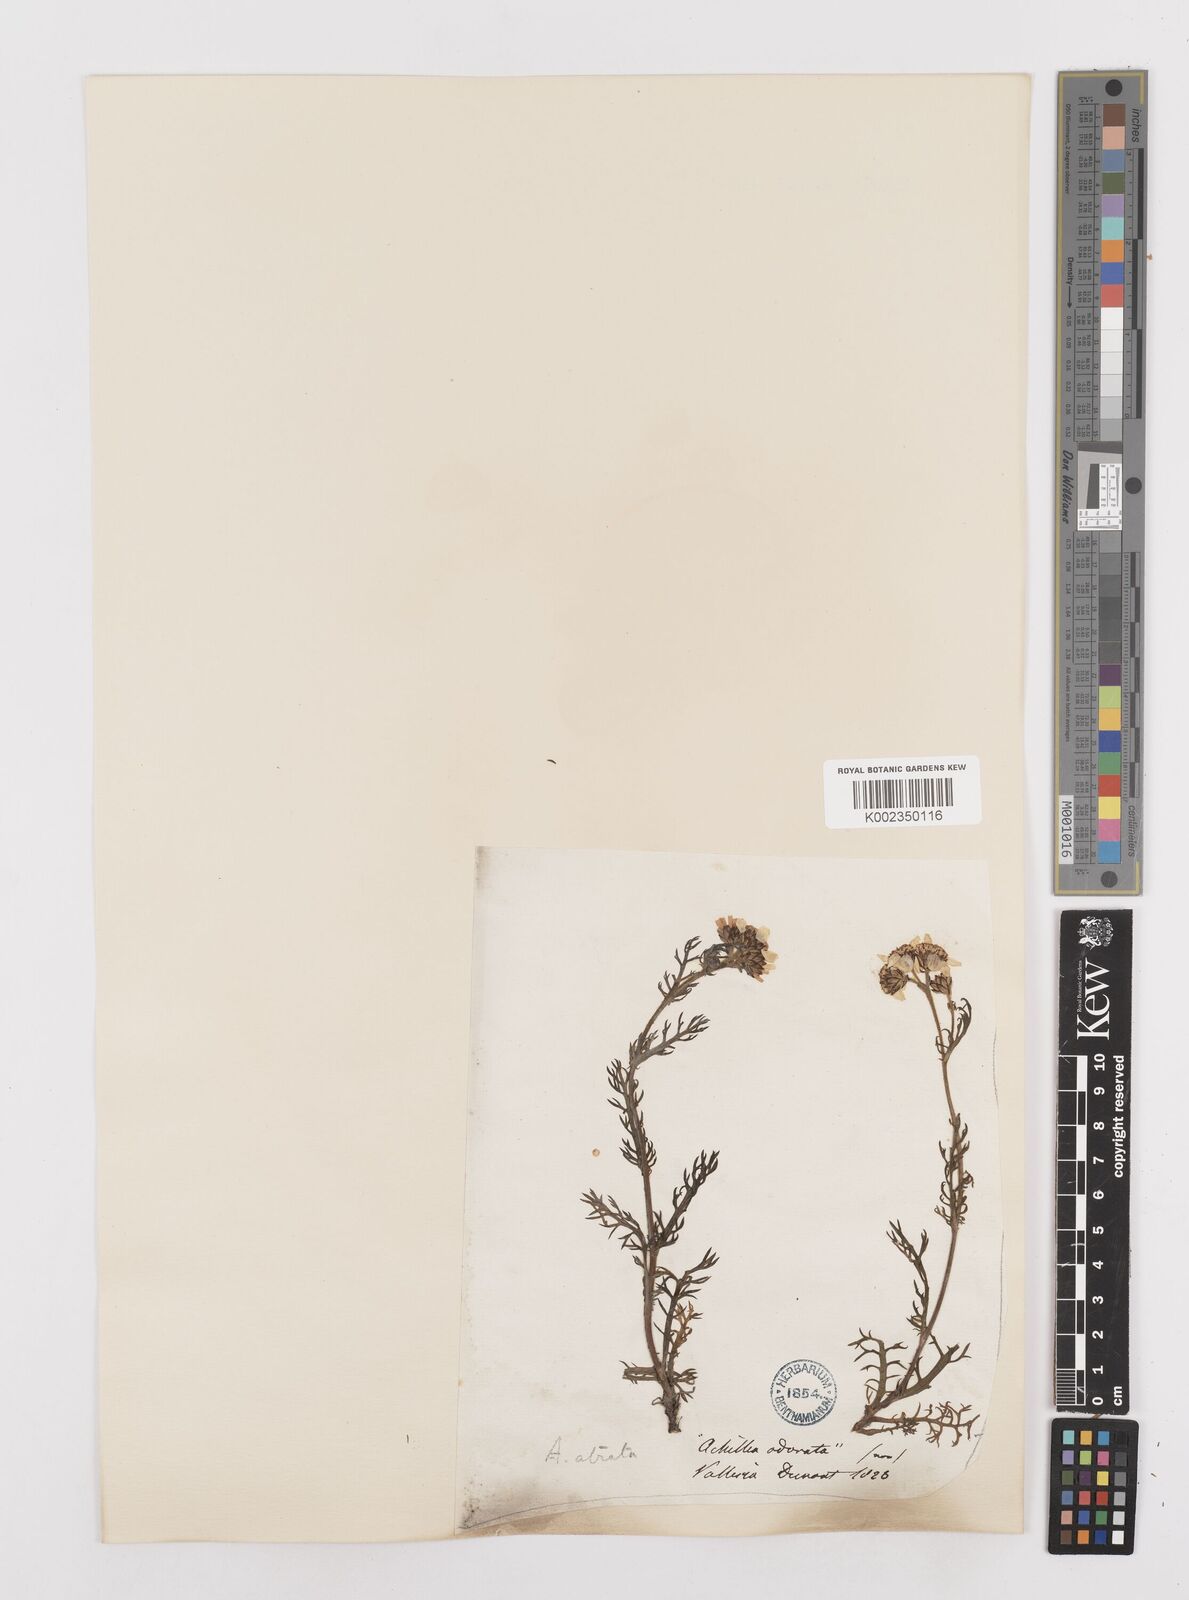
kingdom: Plantae
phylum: Tracheophyta
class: Magnoliopsida
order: Asterales
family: Asteraceae
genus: Achillea
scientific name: Achillea atrata
